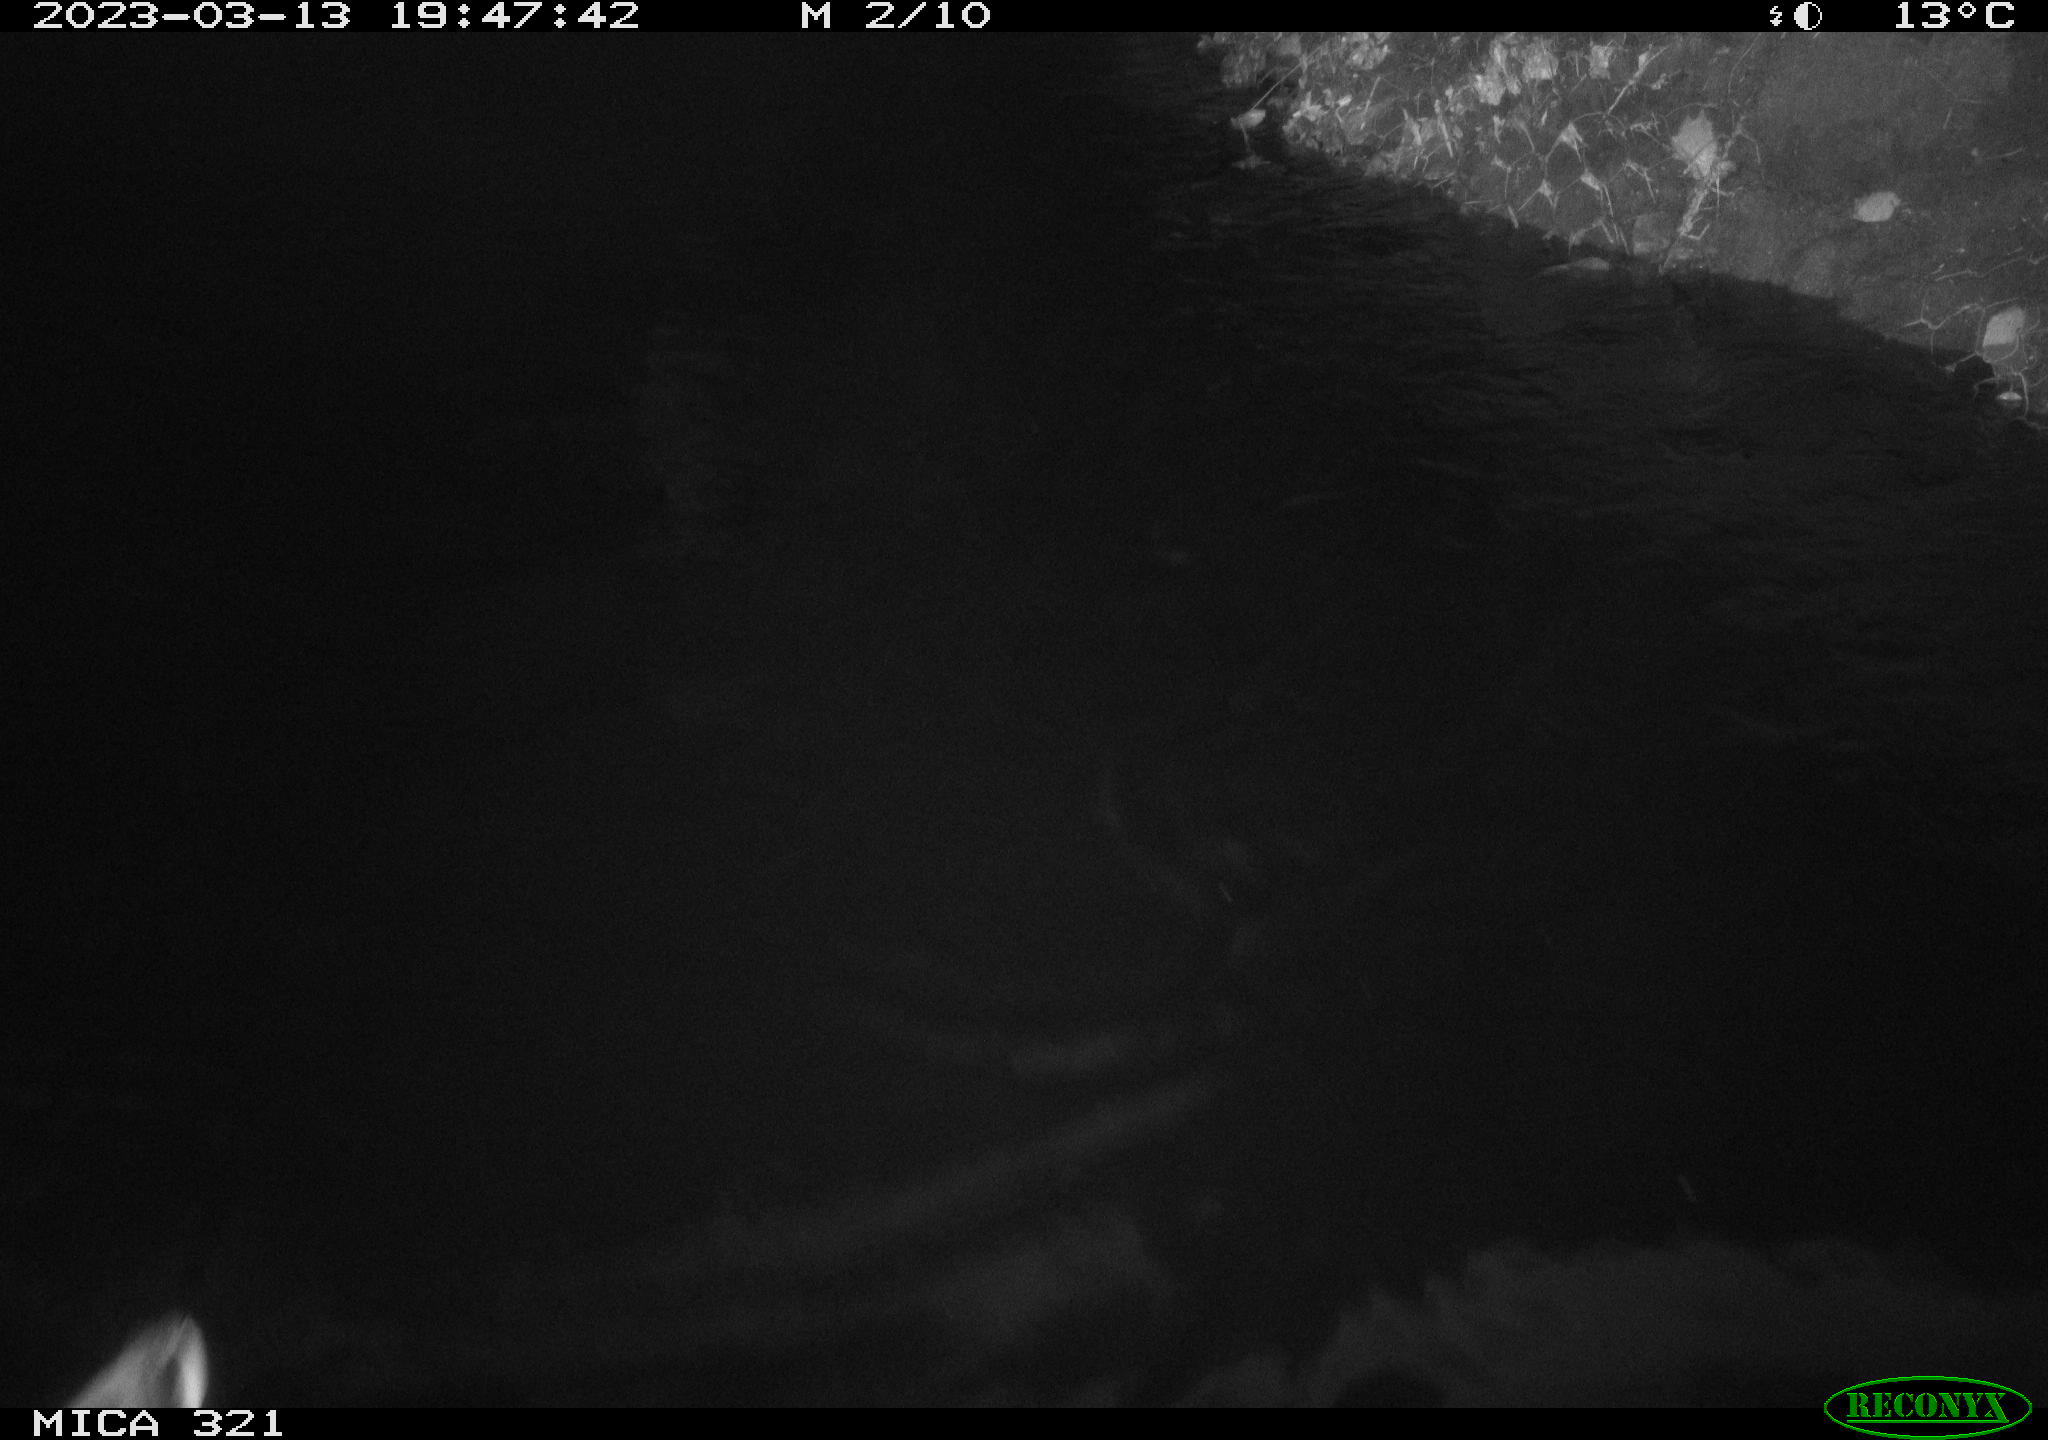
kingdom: Animalia
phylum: Chordata
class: Aves
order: Anseriformes
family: Anatidae
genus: Anas
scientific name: Anas
